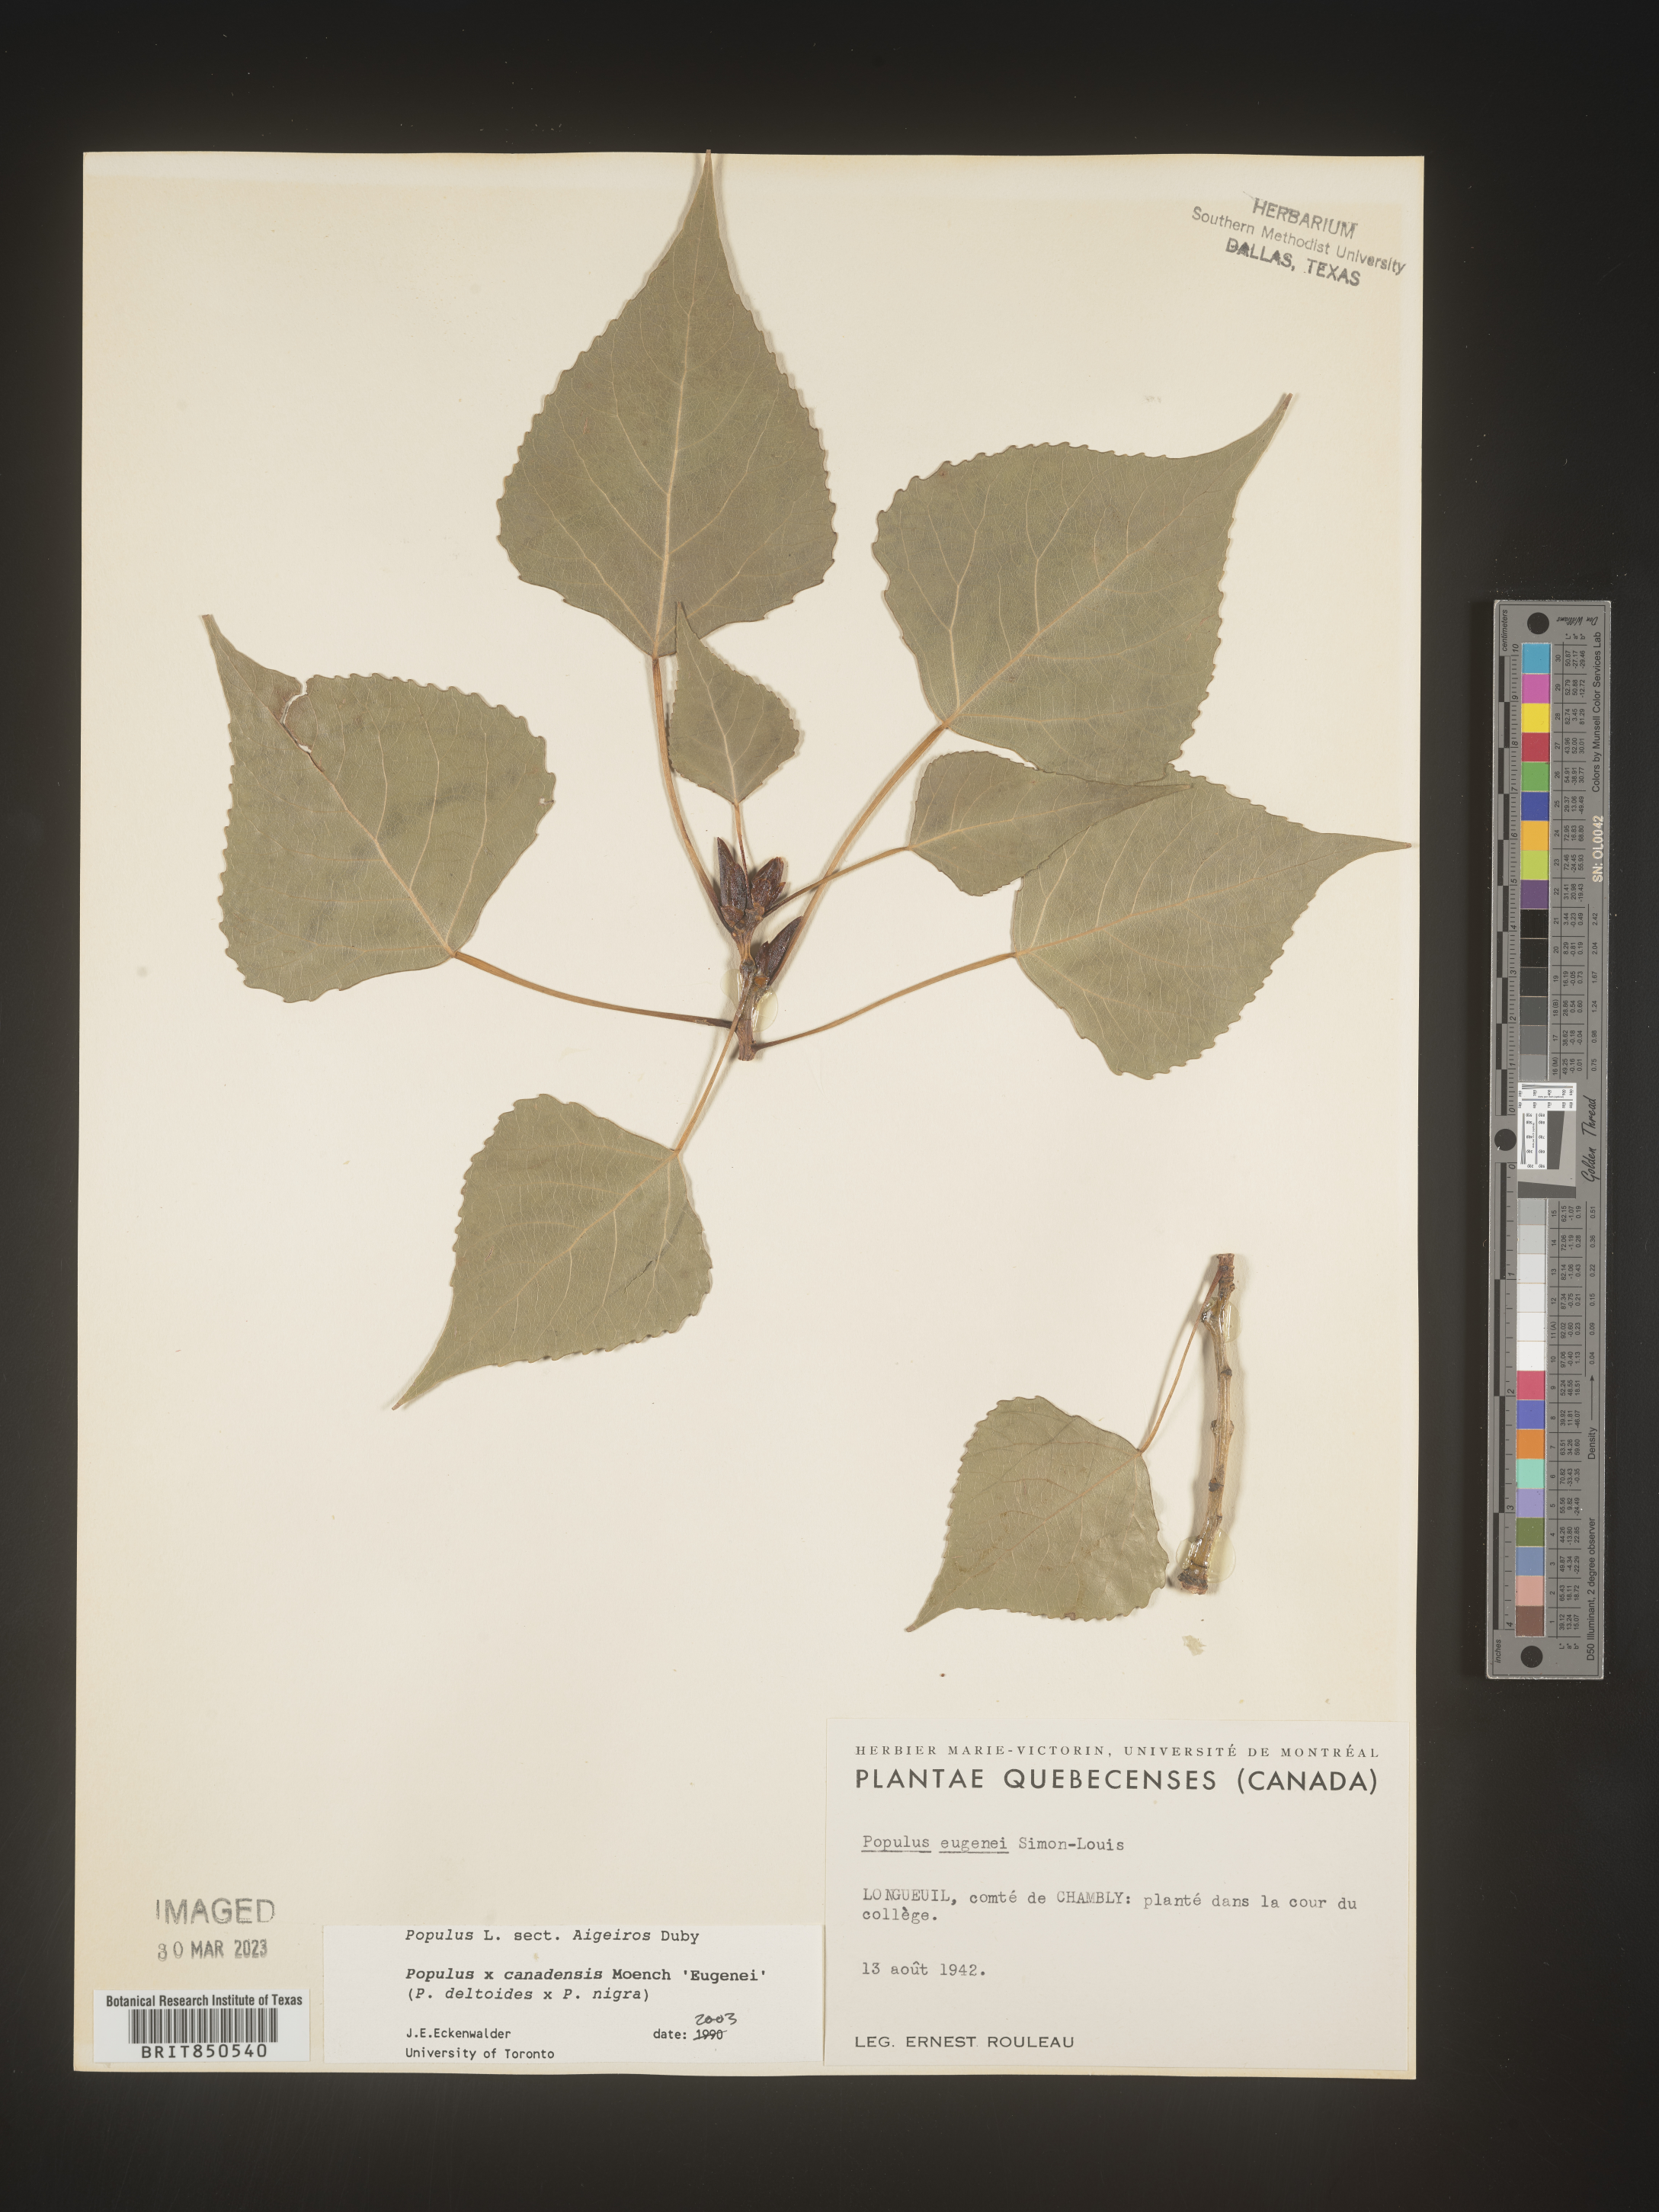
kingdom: Plantae
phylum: Tracheophyta
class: Magnoliopsida
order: Malpighiales
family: Salicaceae
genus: Populus
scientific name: Populus
